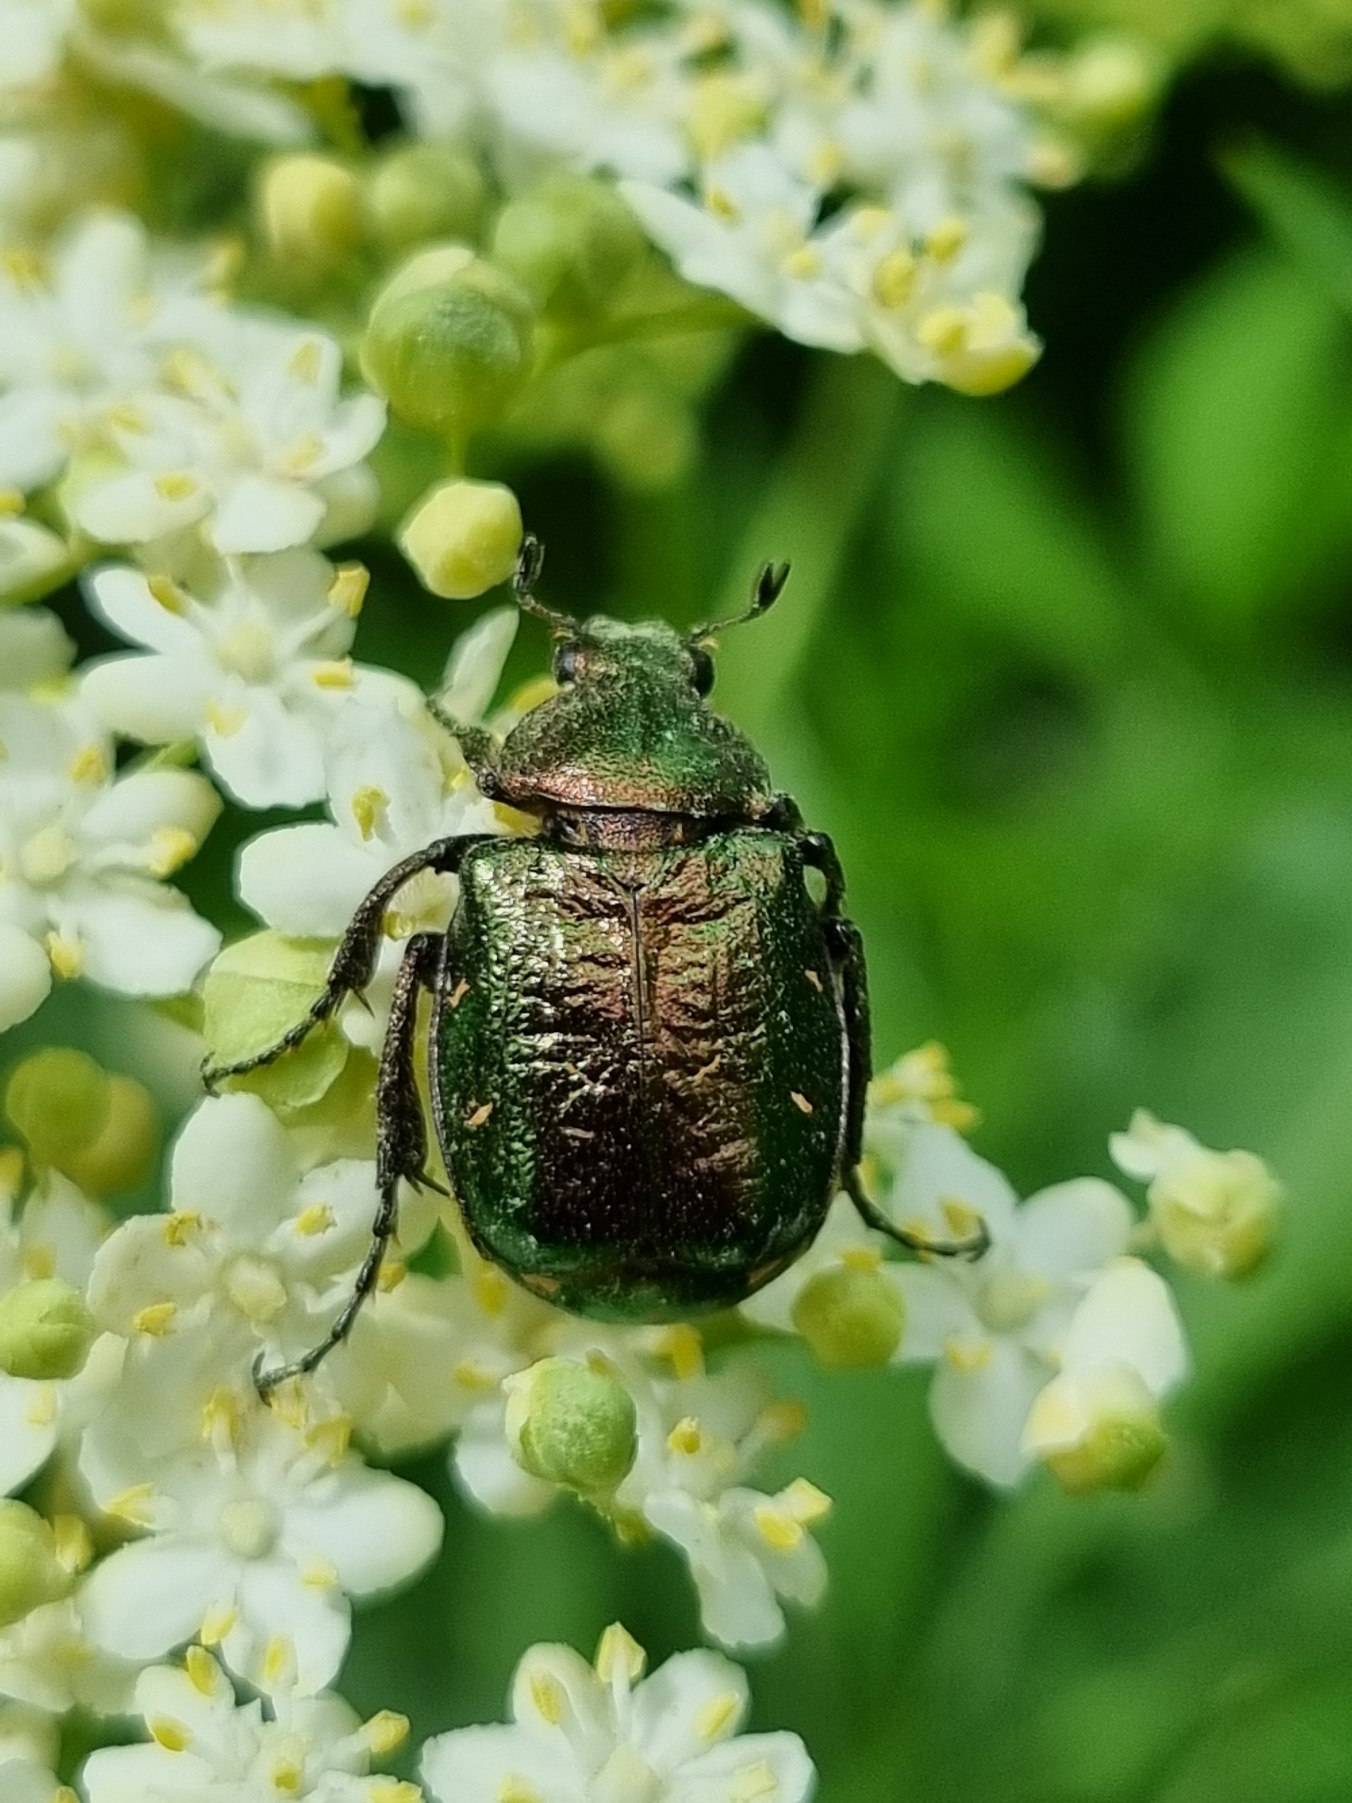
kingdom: Animalia
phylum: Arthropoda
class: Insecta
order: Coleoptera
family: Scarabaeidae
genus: Gnorimus
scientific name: Gnorimus nobilis
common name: Grøn pragttorbist
